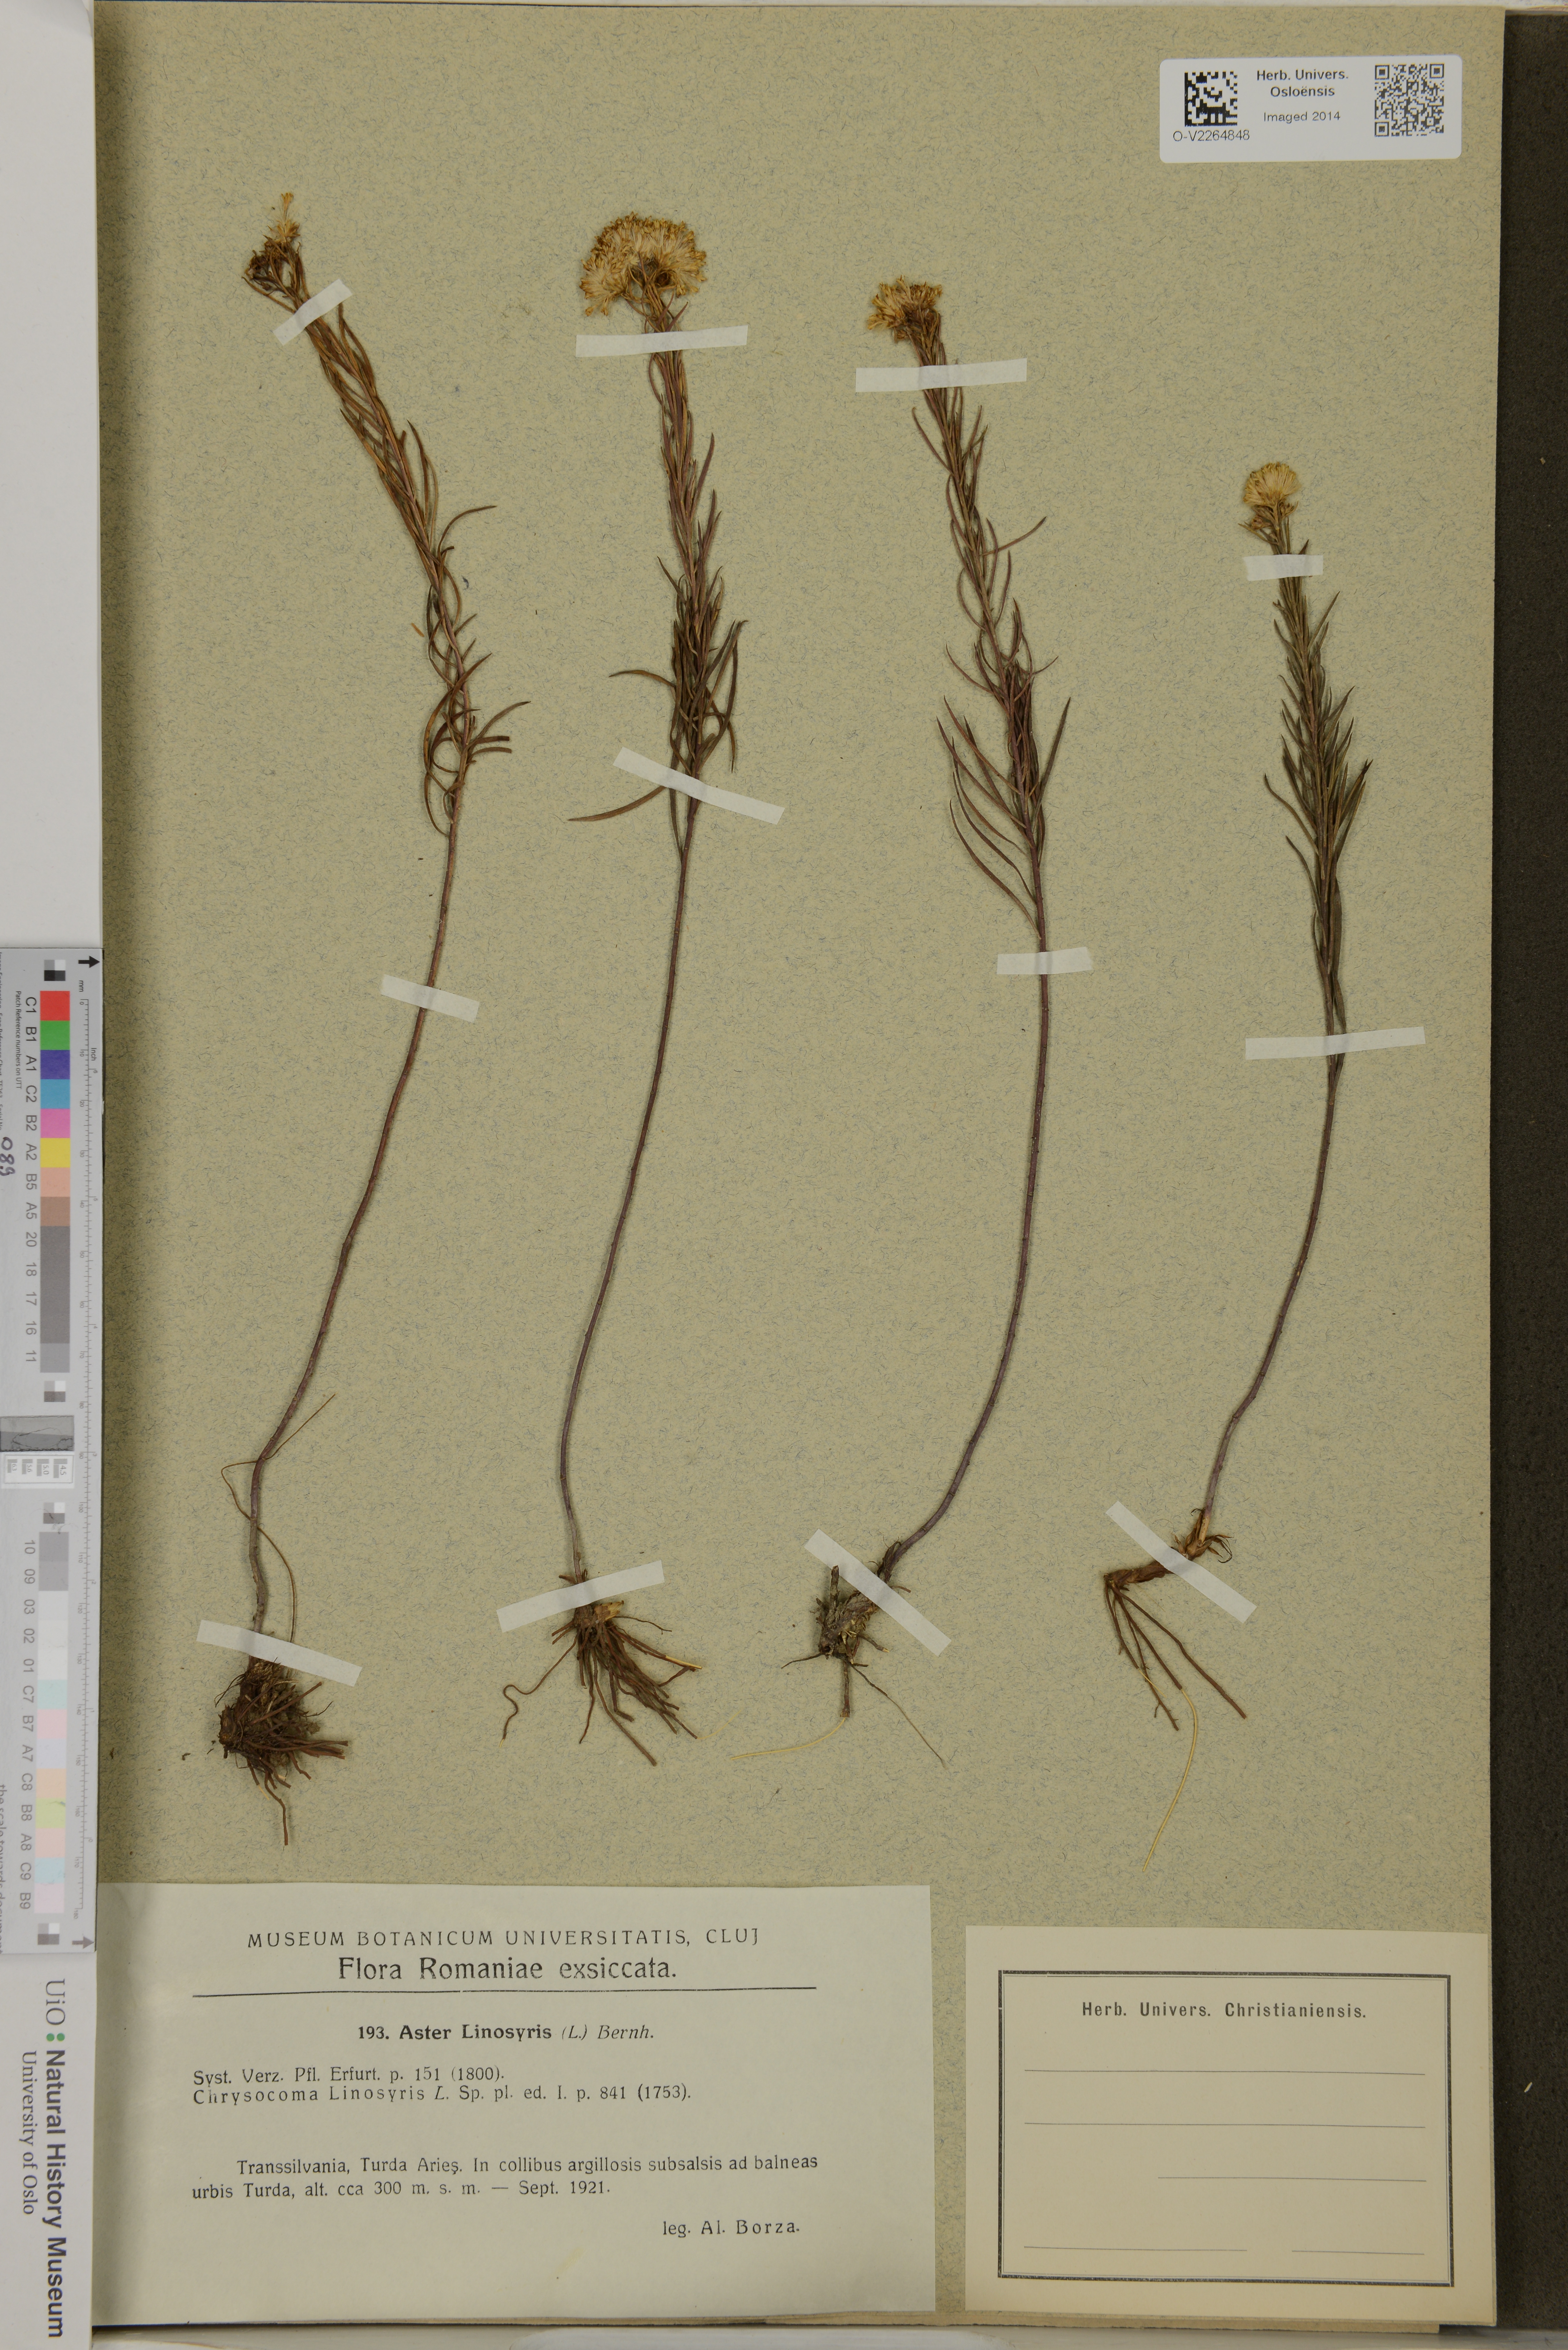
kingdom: Plantae
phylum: Tracheophyta
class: Magnoliopsida
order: Asterales
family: Asteraceae
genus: Galatella
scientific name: Galatella linosyris
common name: Goldilocks aster
